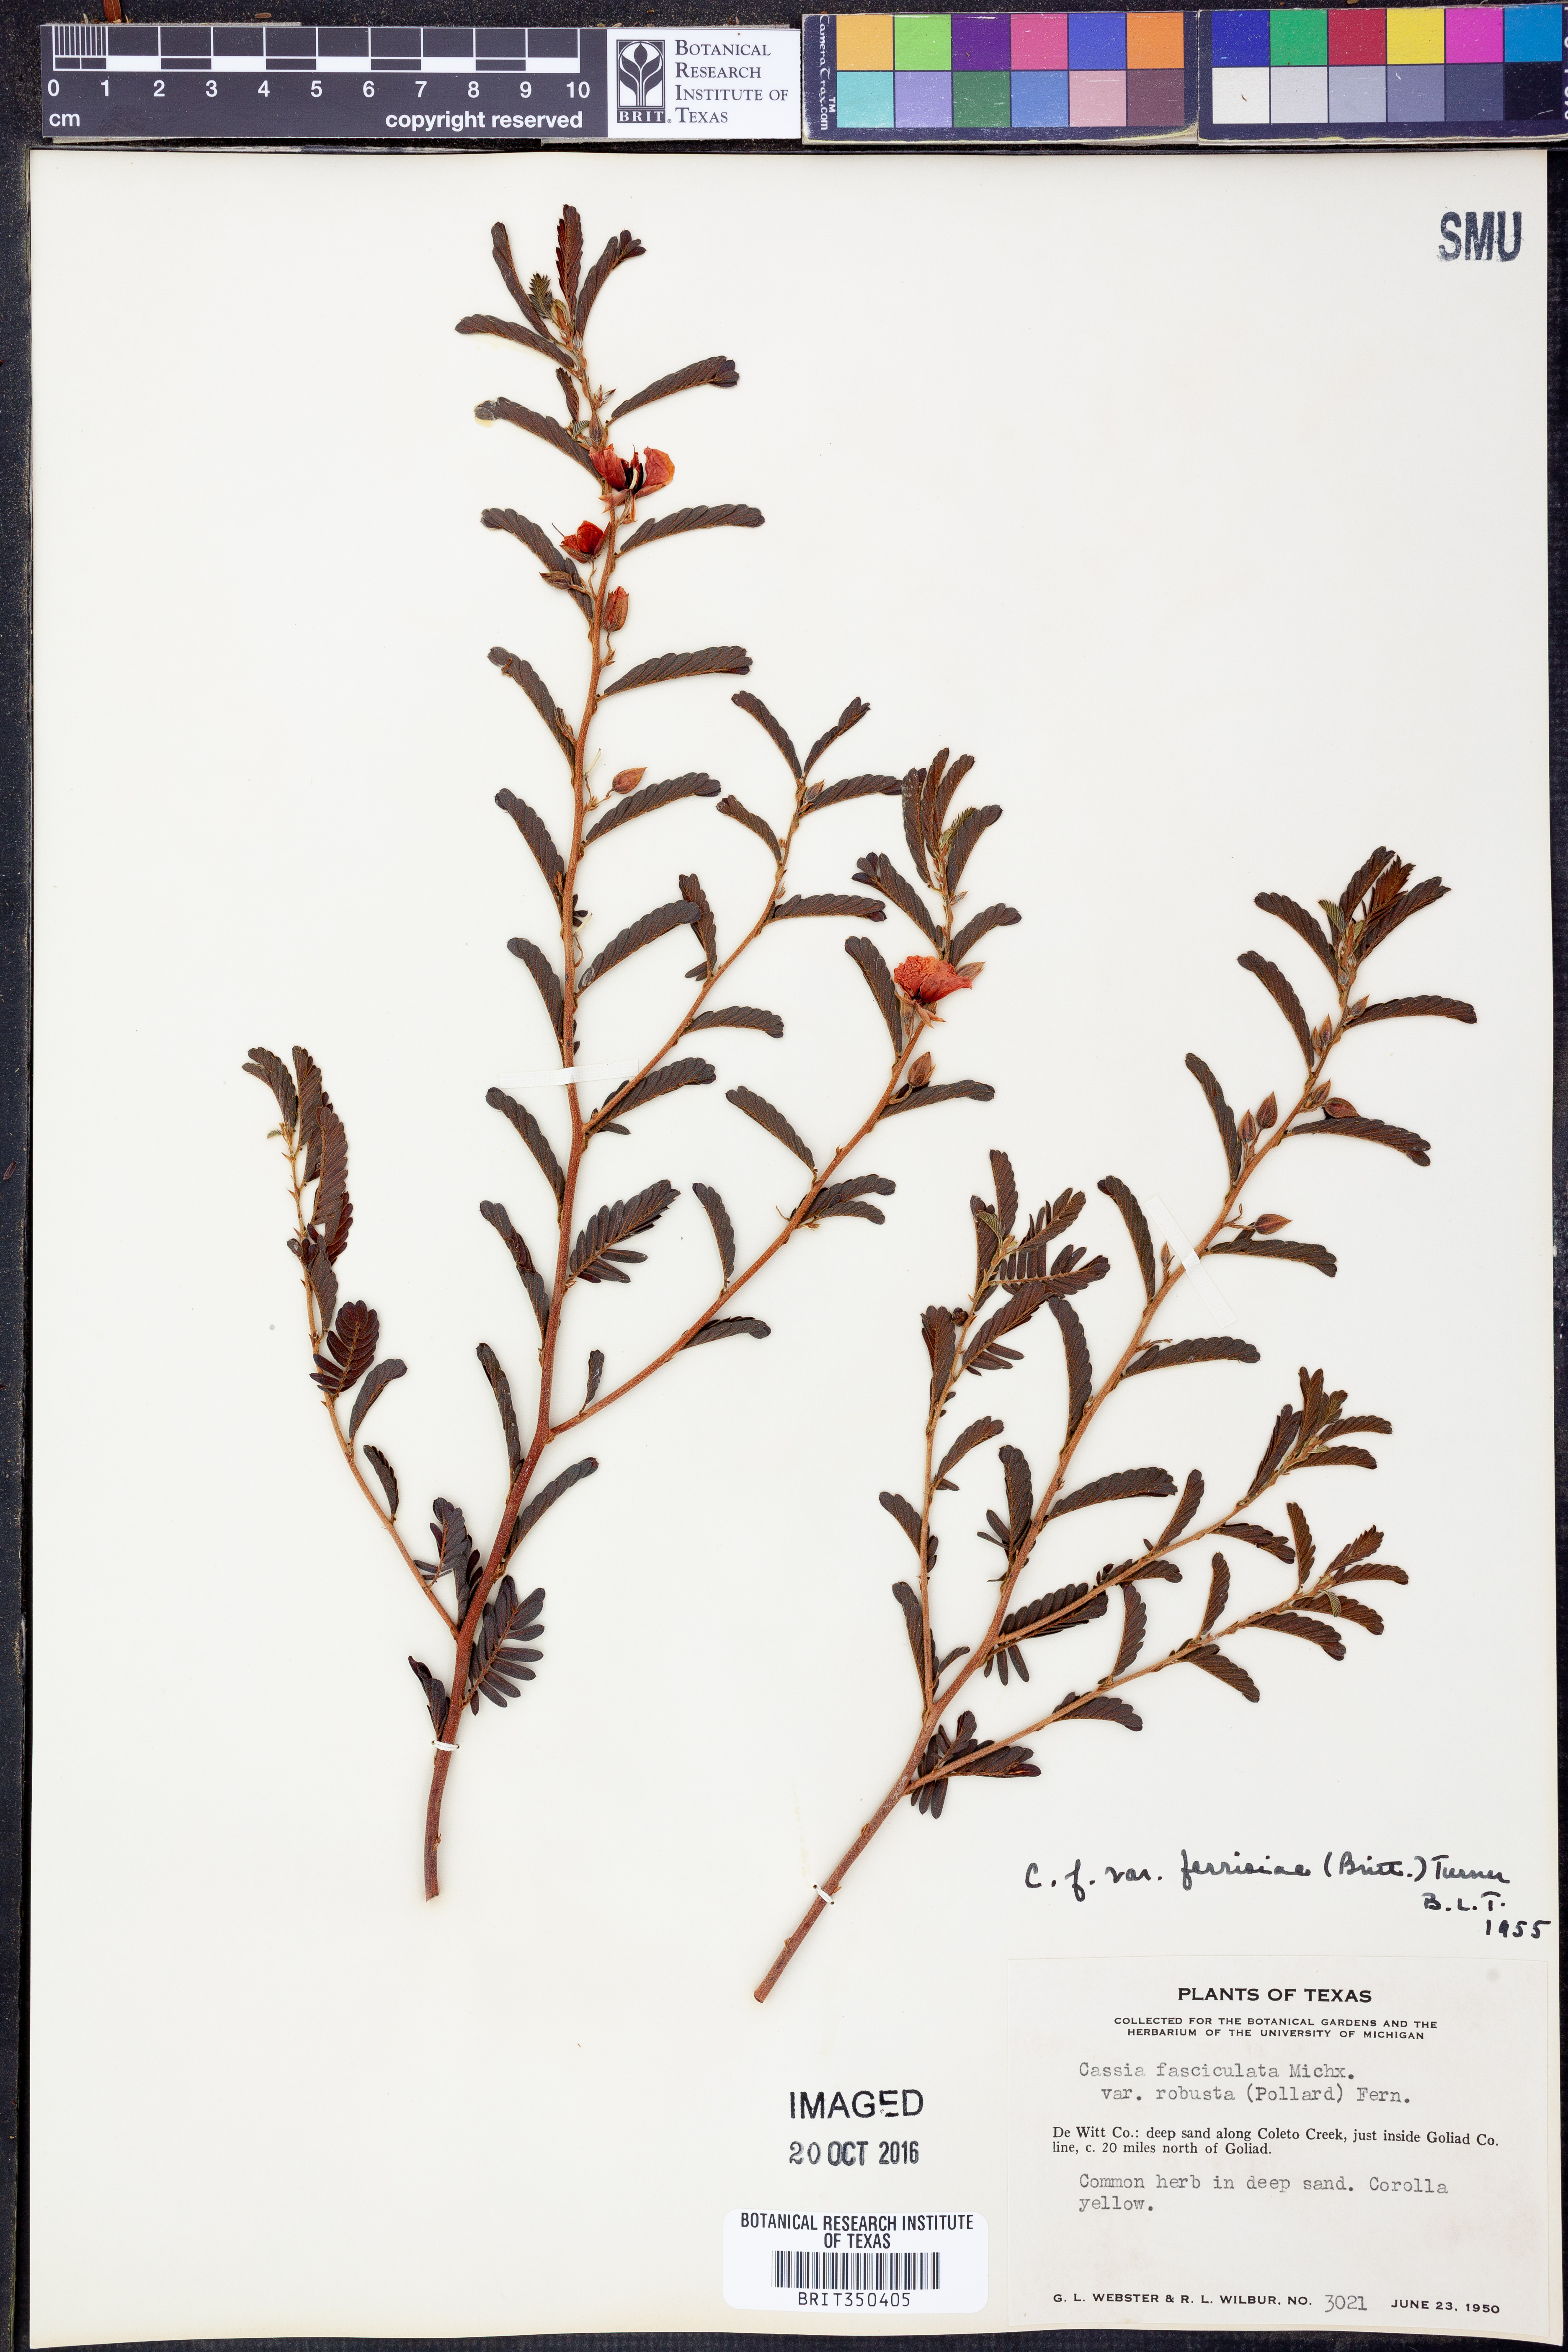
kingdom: Plantae
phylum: Tracheophyta
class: Magnoliopsida
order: Fabales
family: Fabaceae
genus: Chamaecrista
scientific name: Chamaecrista fasciculata
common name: Golden cassia
